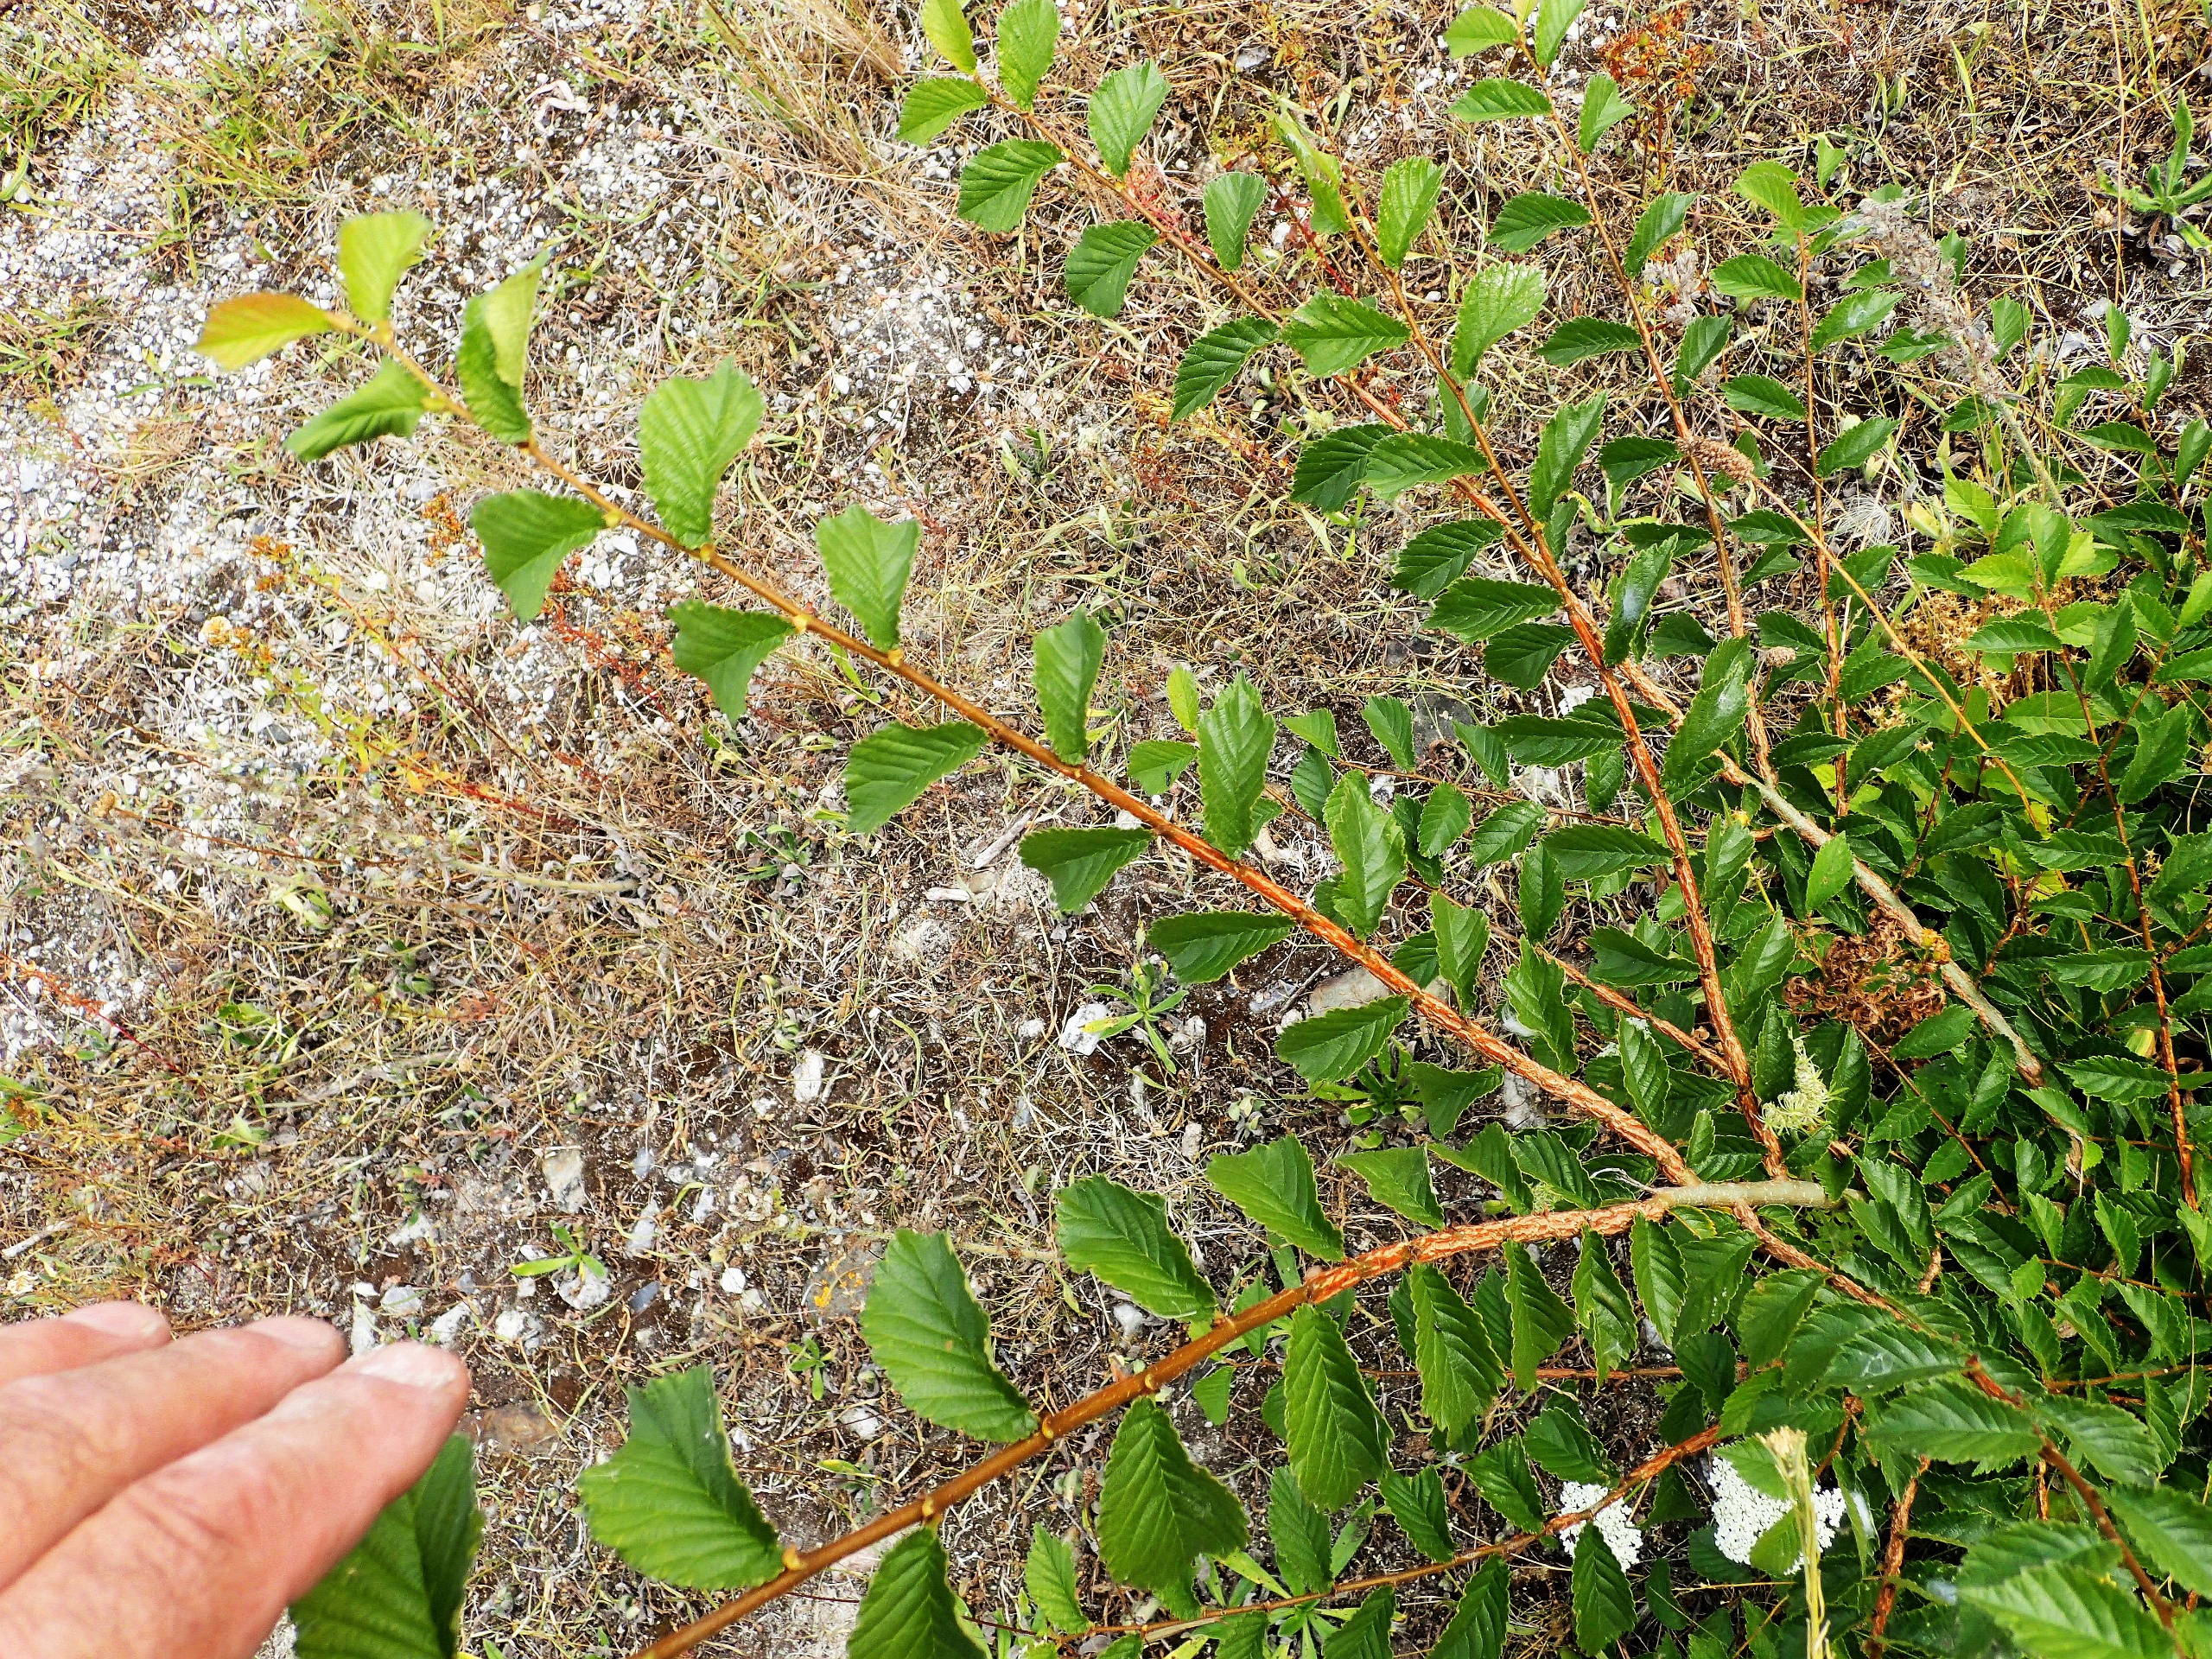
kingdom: Plantae
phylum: Tracheophyta
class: Magnoliopsida
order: Rosales
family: Ulmaceae
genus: Ulmus
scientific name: Ulmus minor
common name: Småbladet elm
